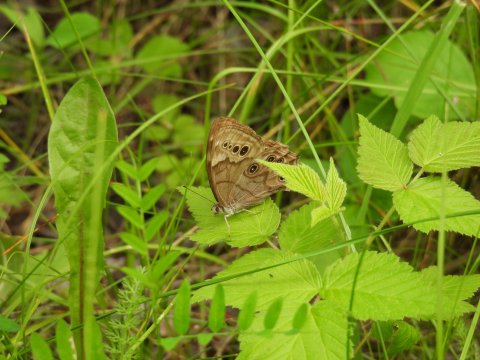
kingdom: Animalia
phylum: Arthropoda
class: Insecta
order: Lepidoptera
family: Nymphalidae
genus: Lethe
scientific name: Lethe anthedon
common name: Northern Pearly-Eye
